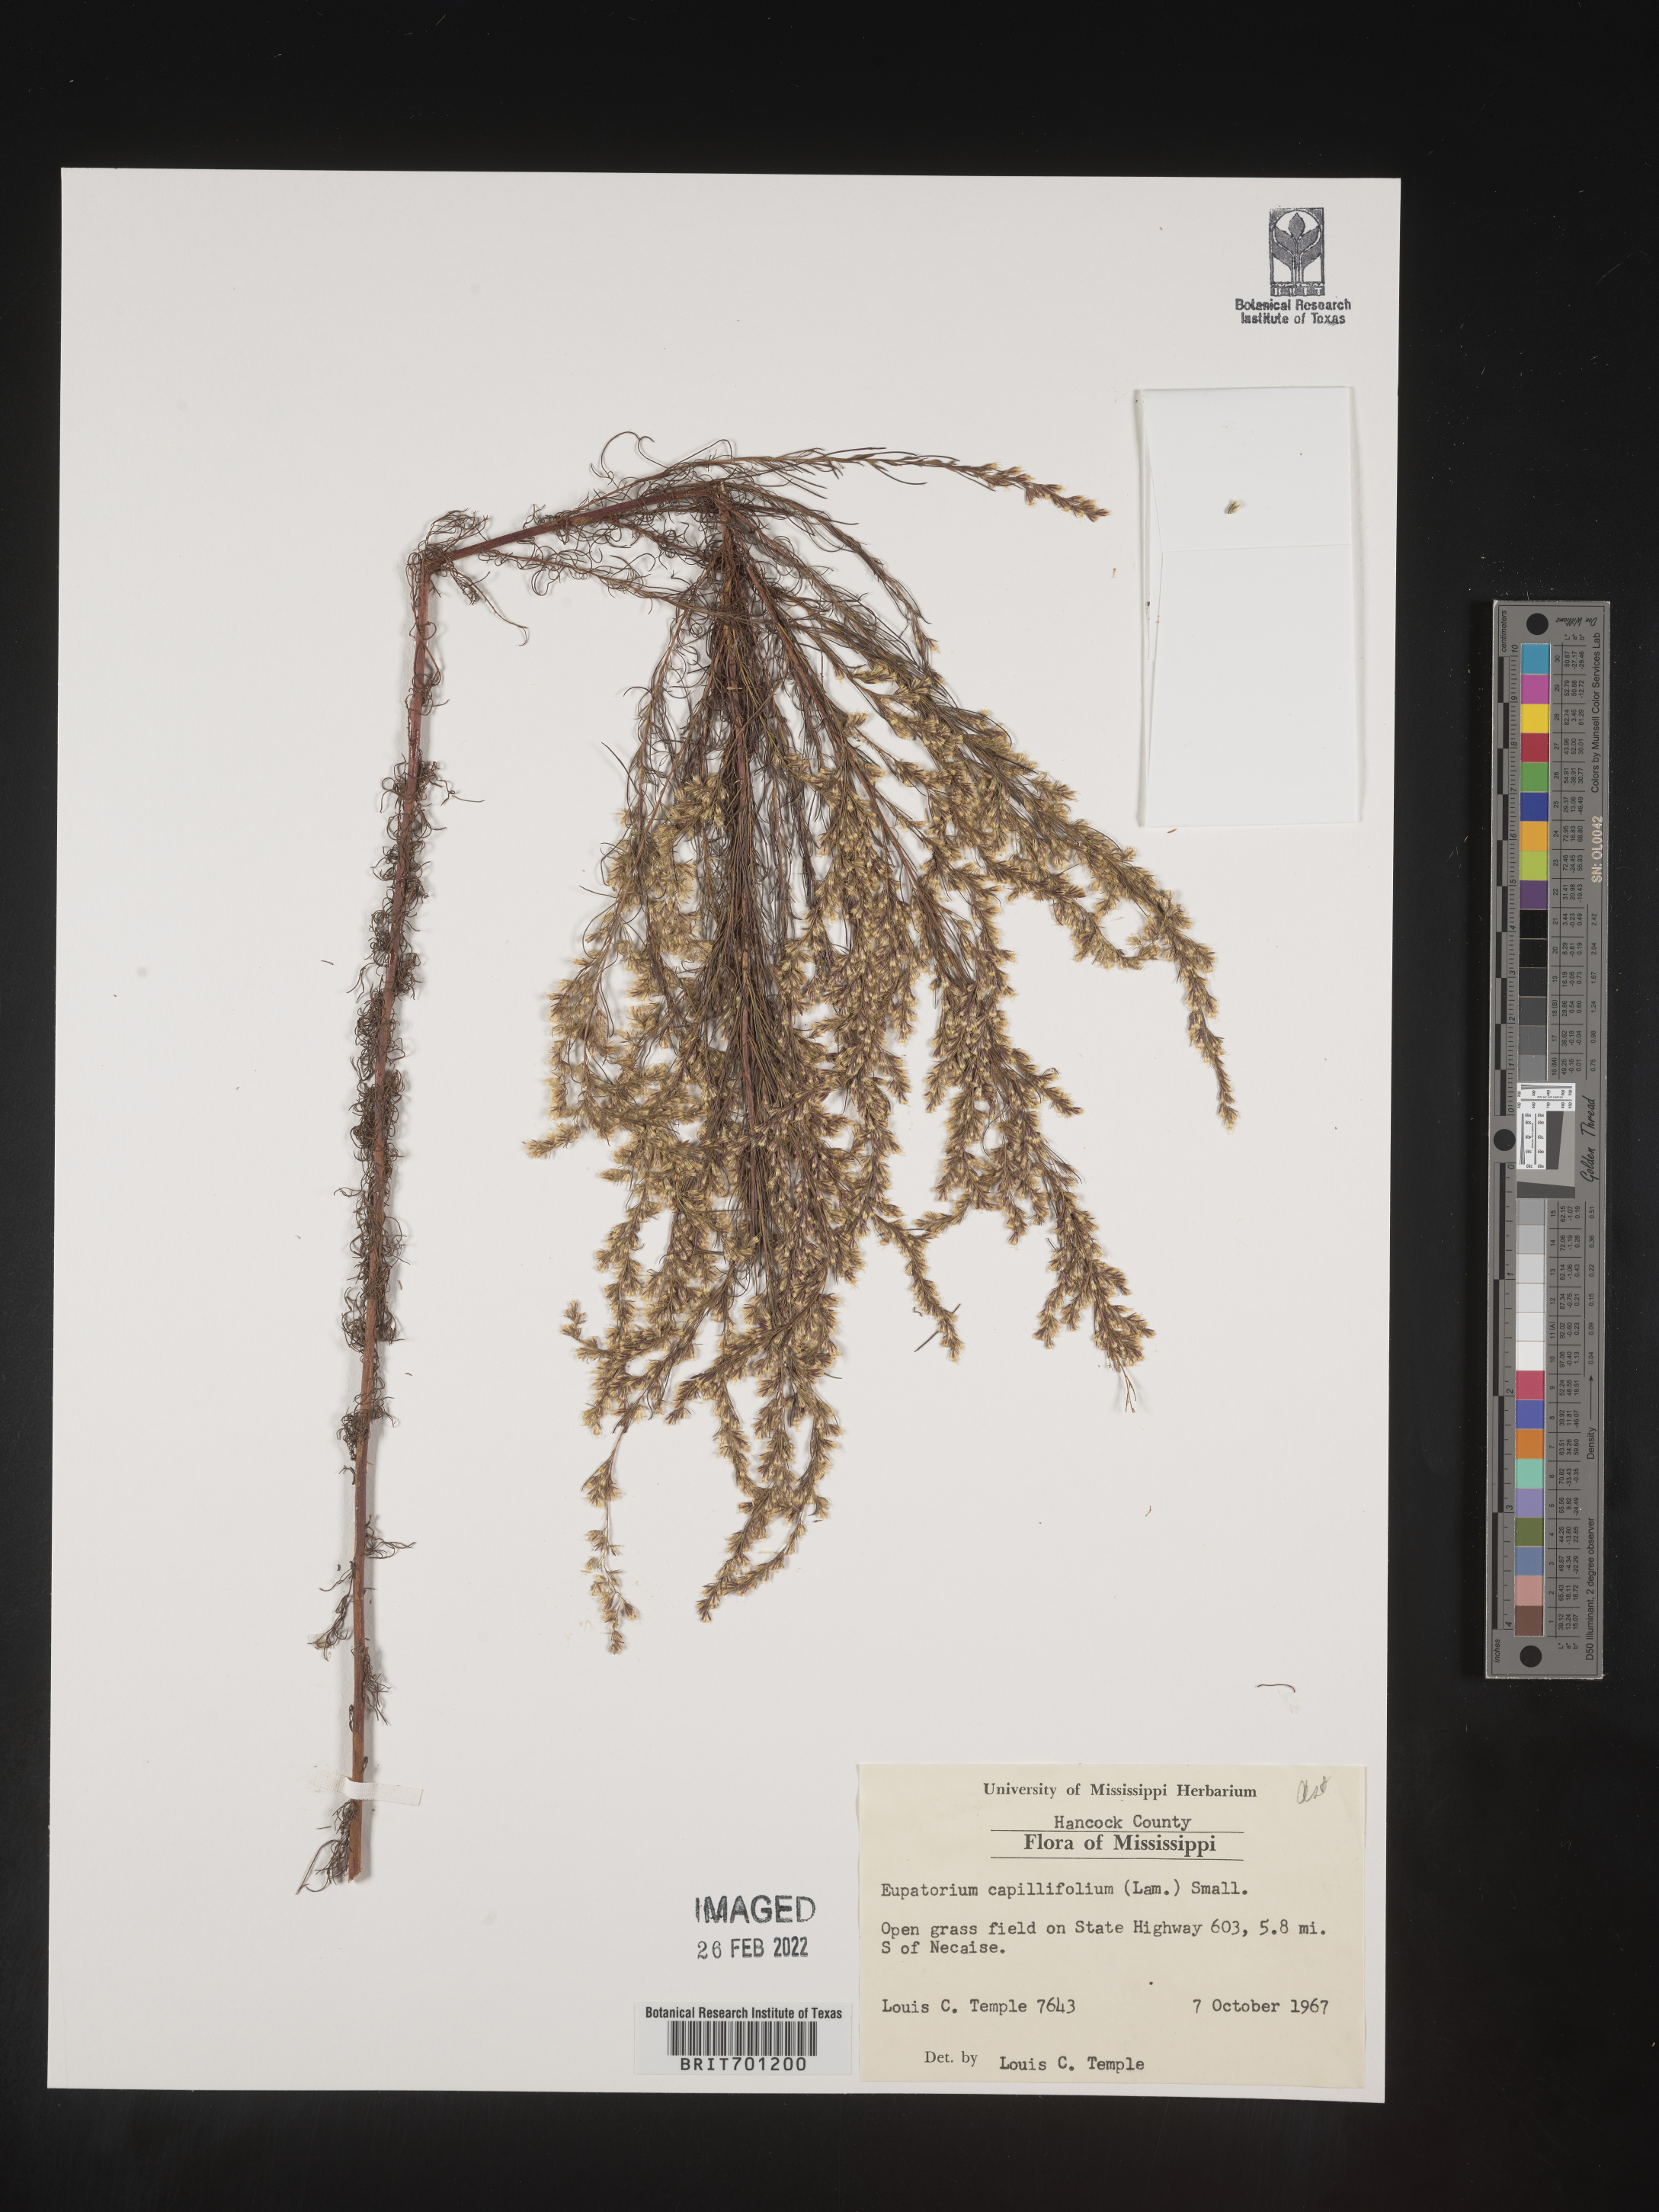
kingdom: Plantae
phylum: Tracheophyta
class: Magnoliopsida
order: Asterales
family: Asteraceae
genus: Eupatorium
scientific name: Eupatorium capillifolium
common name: Dog-fennel
